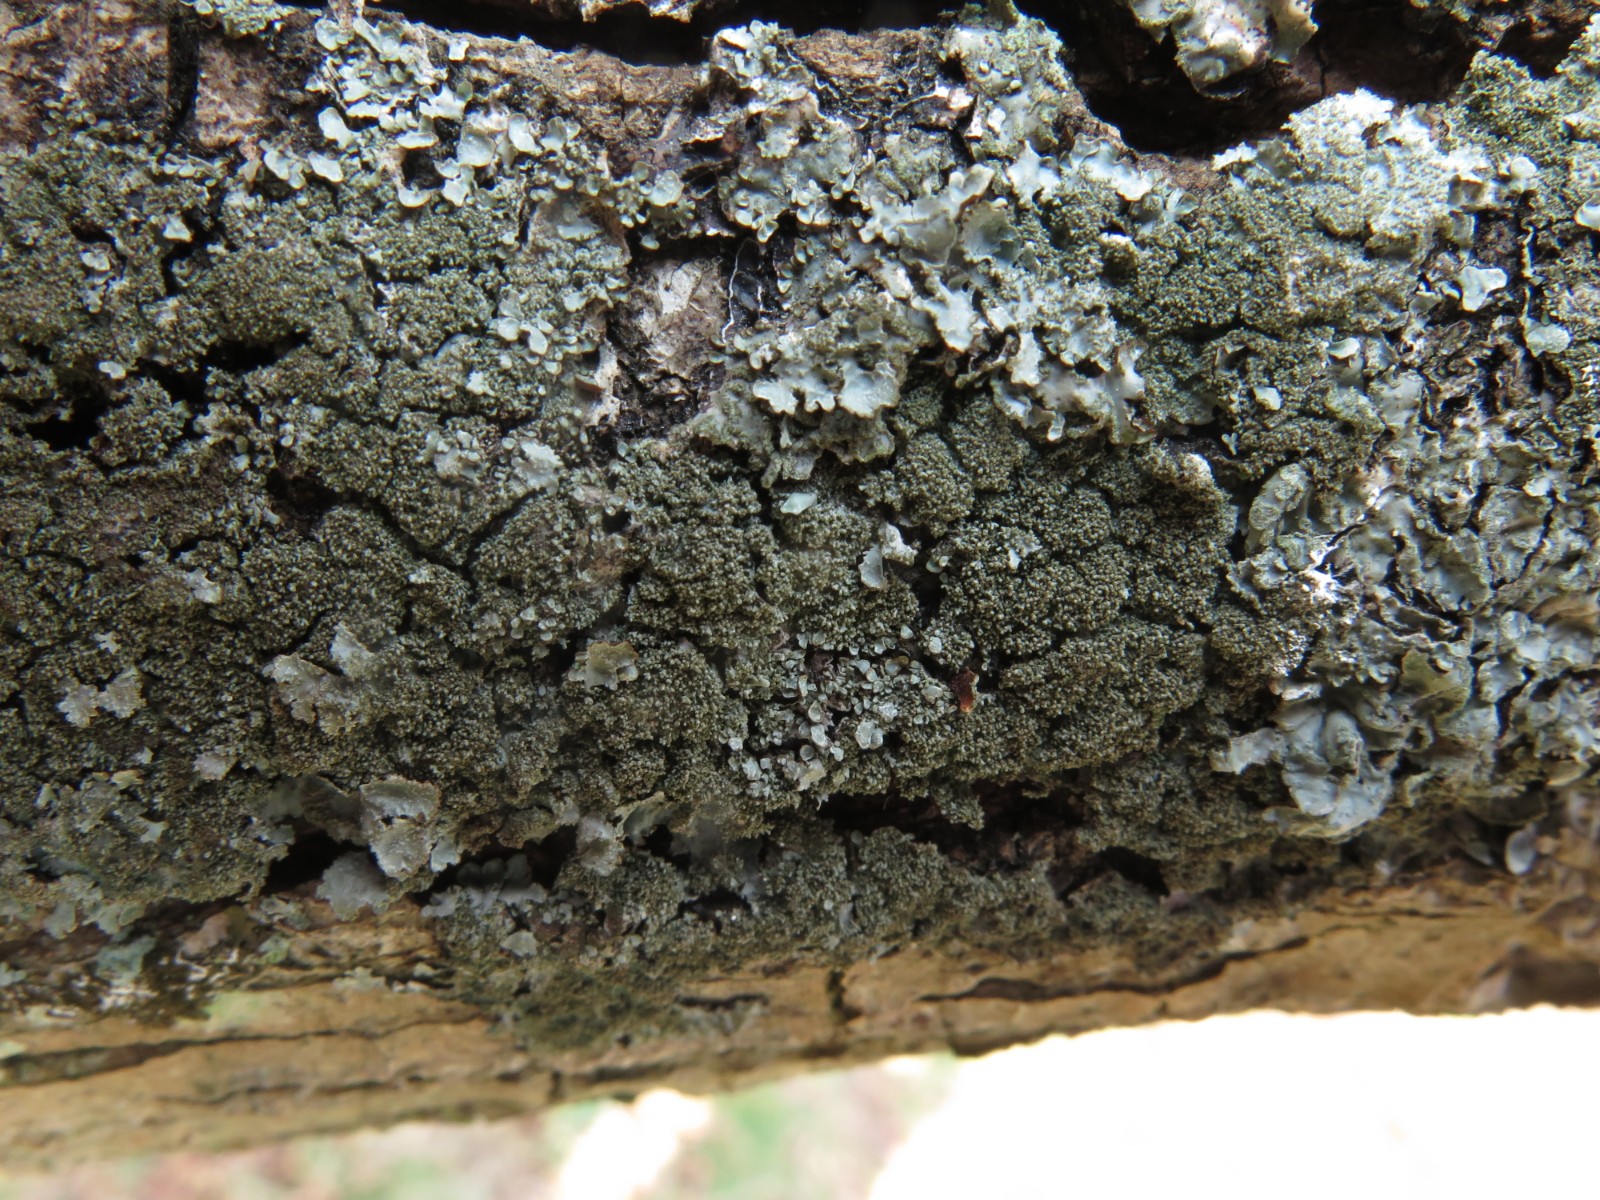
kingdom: Fungi
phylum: Ascomycota
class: Lecanoromycetes
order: Lecanorales
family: Parmeliaceae
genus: Parmelia
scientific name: Parmelia saxatilis
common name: farve-skållav
